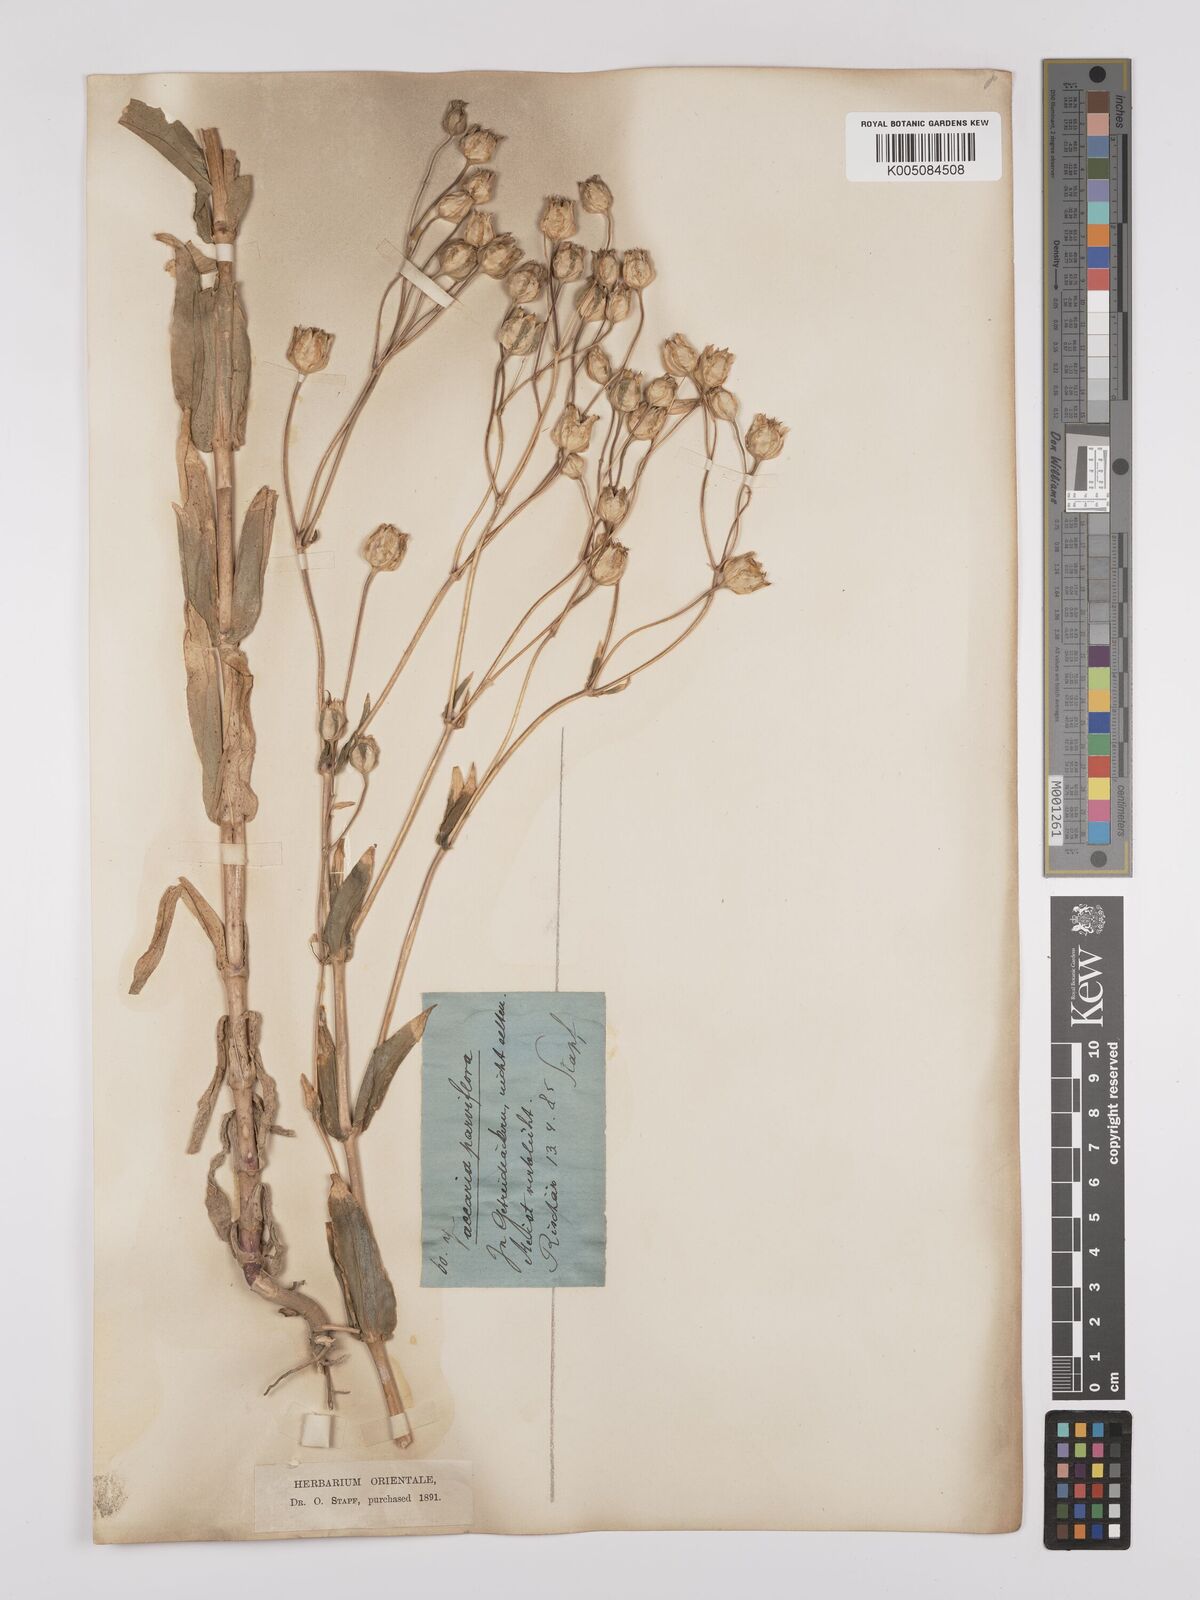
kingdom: Plantae
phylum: Tracheophyta
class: Magnoliopsida
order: Caryophyllales
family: Caryophyllaceae
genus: Gypsophila
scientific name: Gypsophila vaccaria
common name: Cow soapwort
